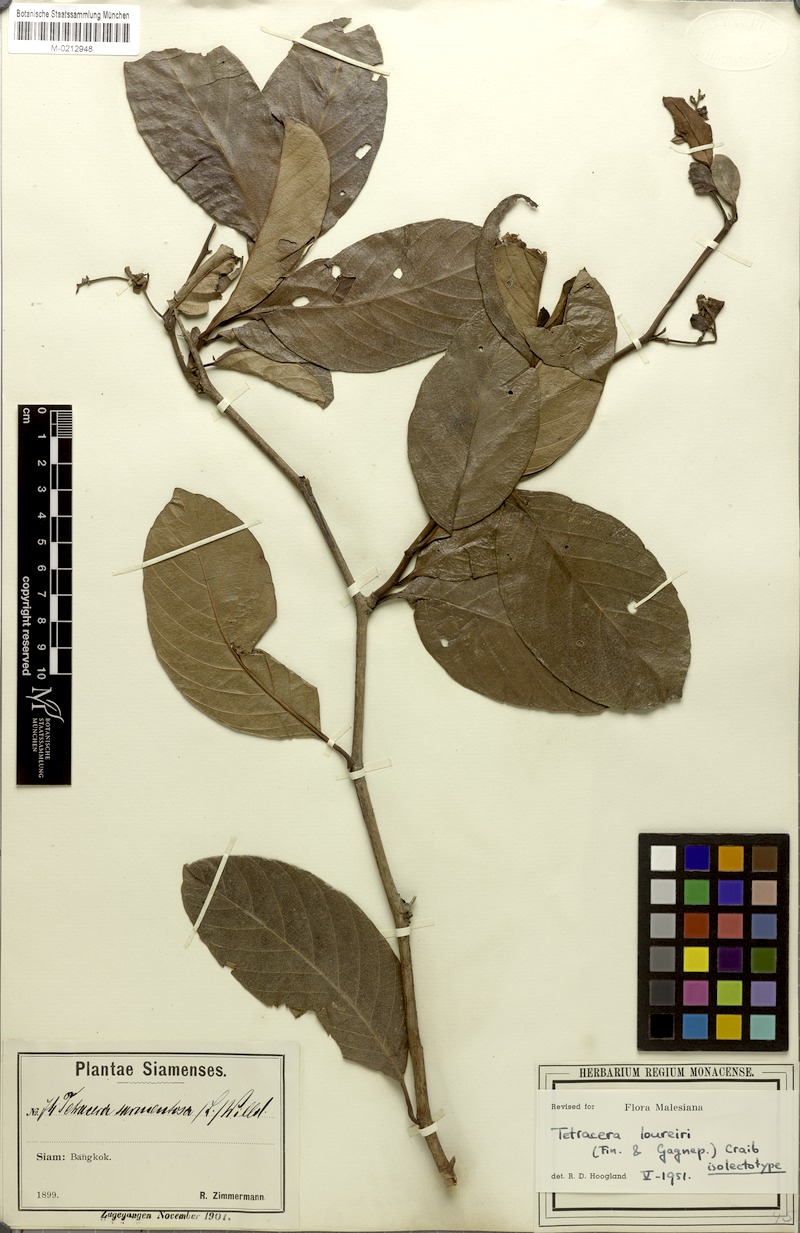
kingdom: Plantae
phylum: Tracheophyta
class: Magnoliopsida
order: Dilleniales
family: Dilleniaceae
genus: Tetracera
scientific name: Tetracera loureiri
